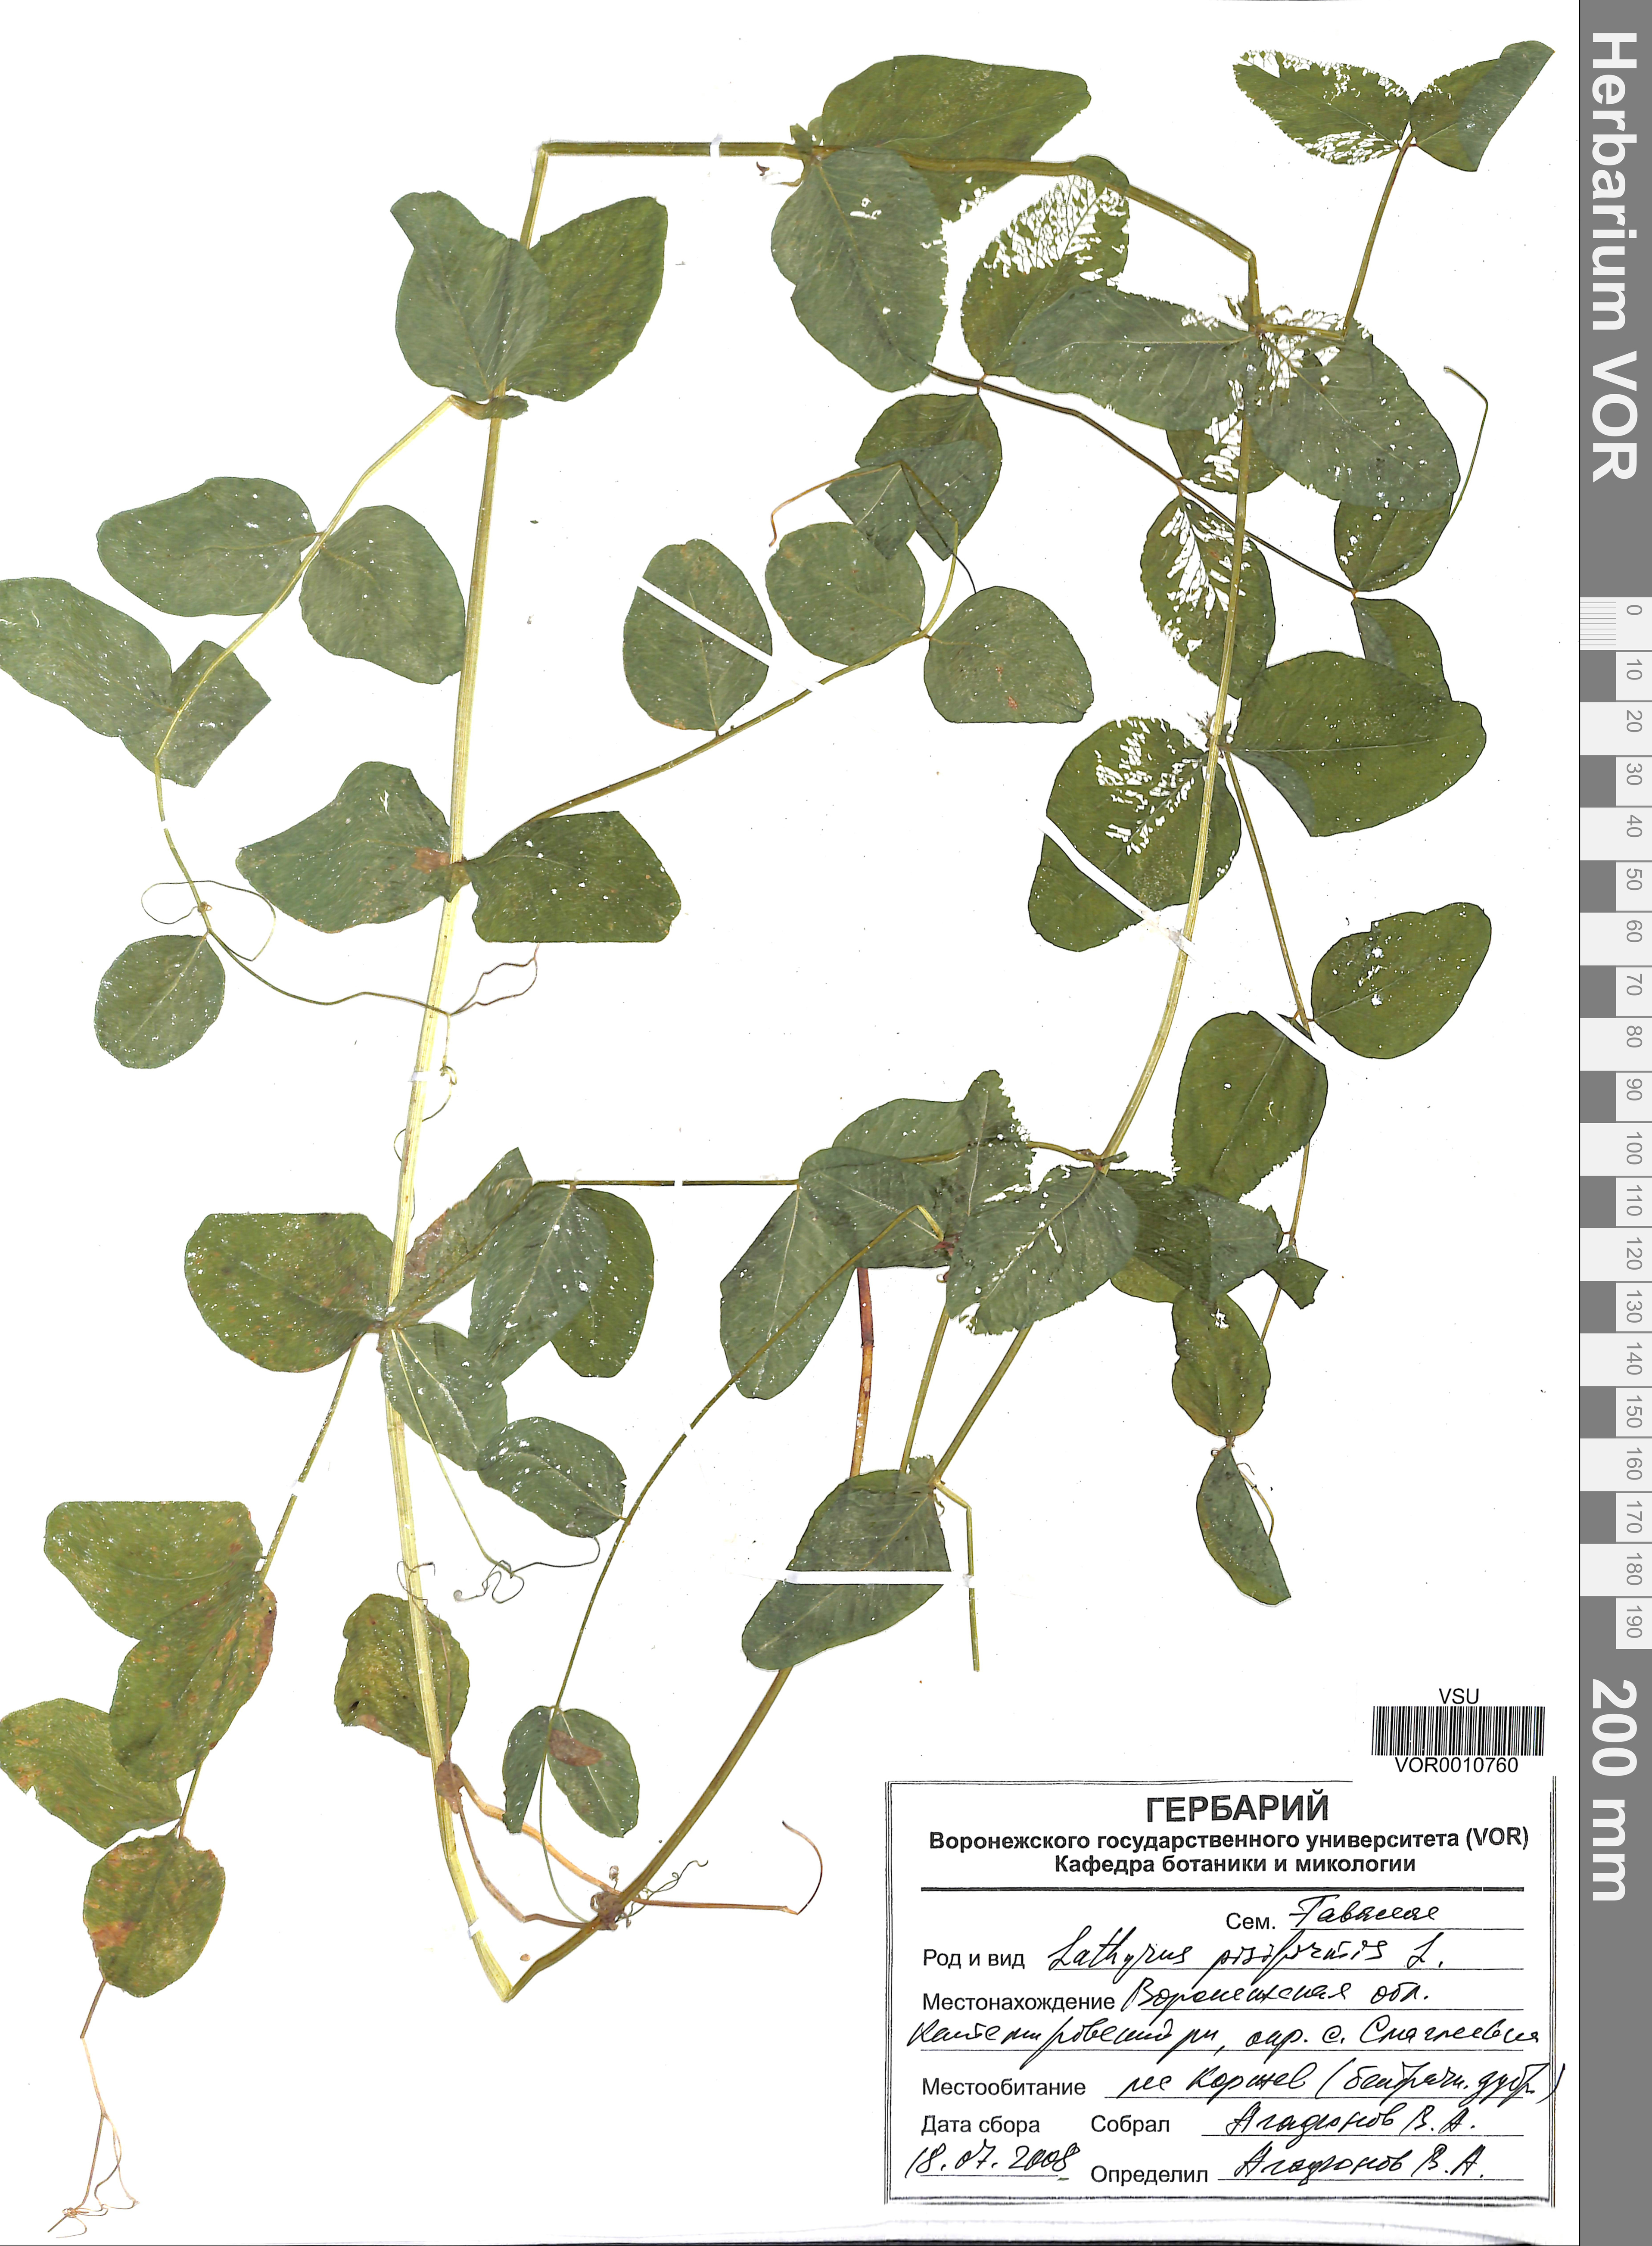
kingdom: Plantae
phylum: Tracheophyta
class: Magnoliopsida
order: Fabales
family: Fabaceae
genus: Lathyrus
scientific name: Lathyrus pisiformis
